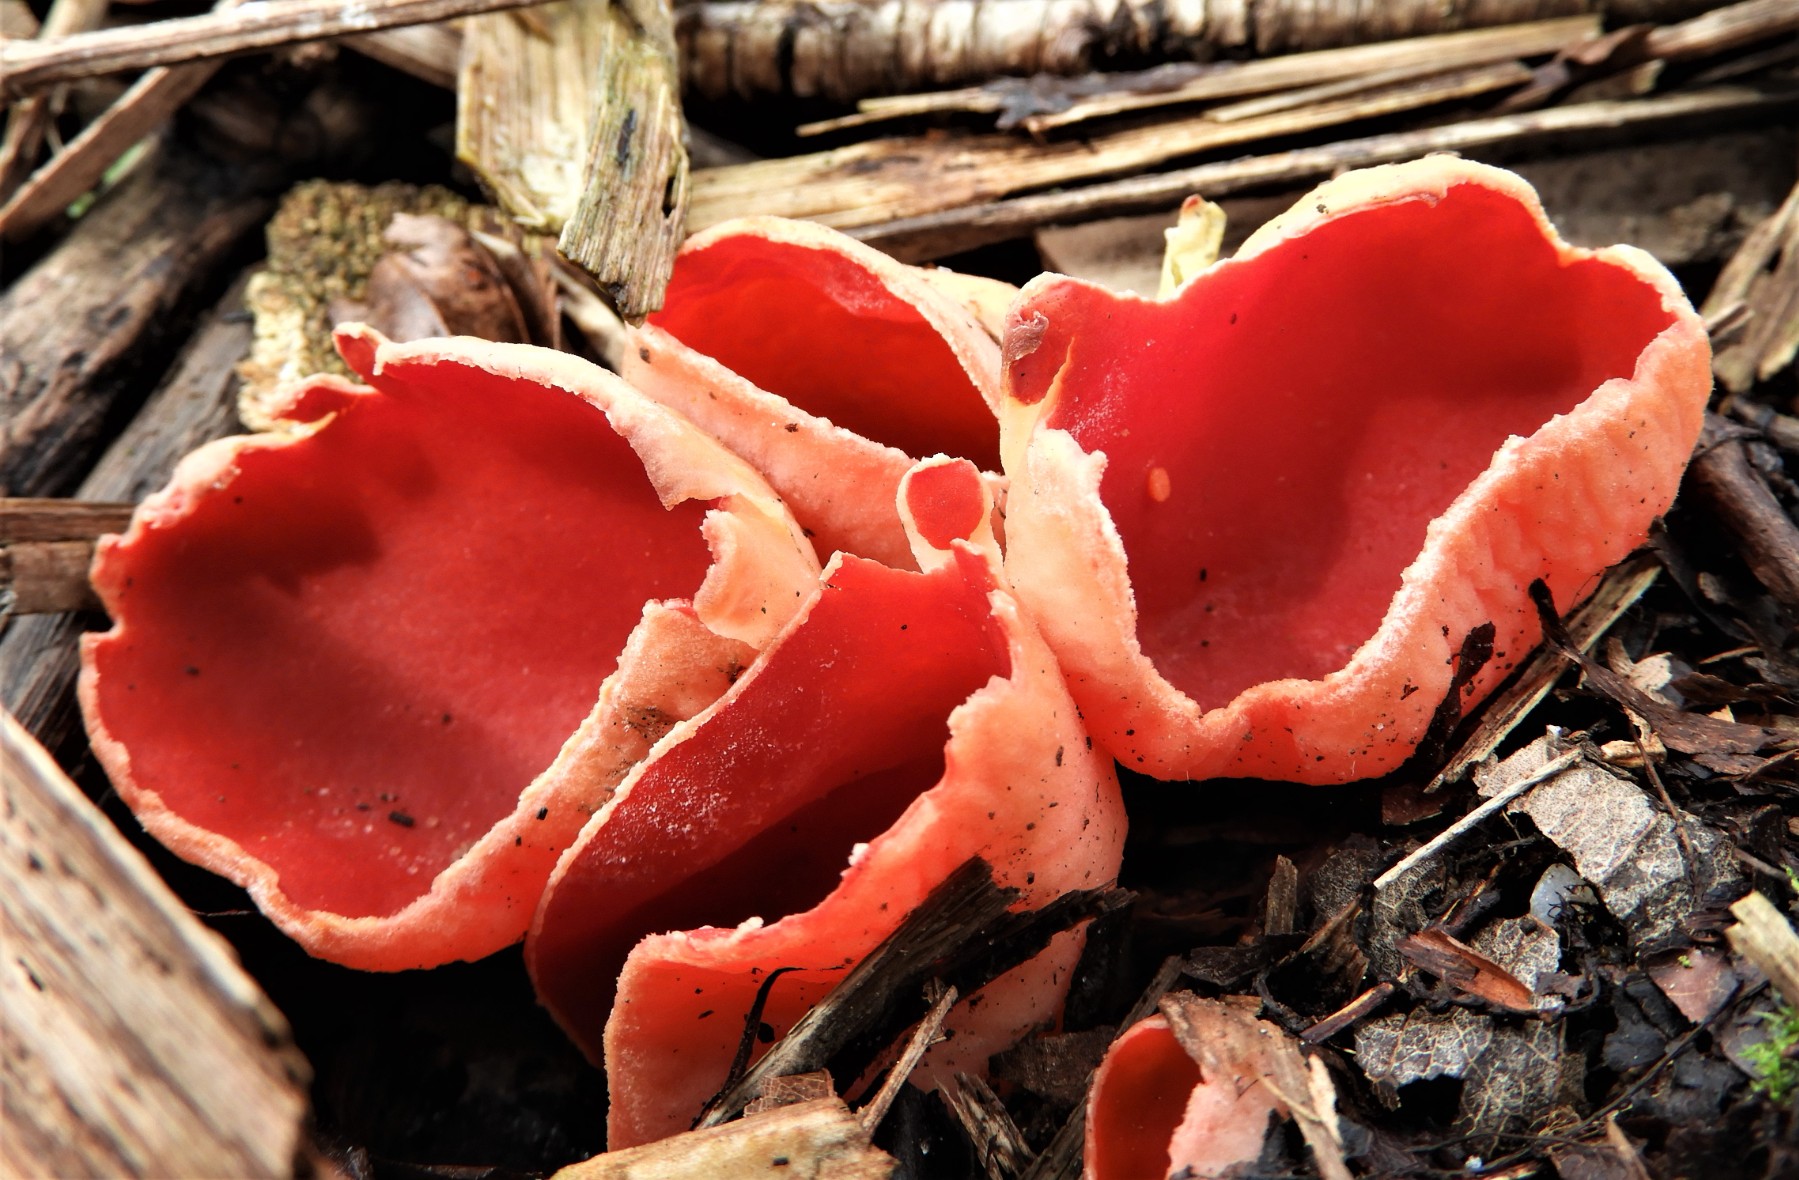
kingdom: Fungi
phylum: Ascomycota
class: Pezizomycetes
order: Pezizales
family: Sarcoscyphaceae
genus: Sarcoscypha
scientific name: Sarcoscypha austriaca
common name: krølhåret pragtbæger
